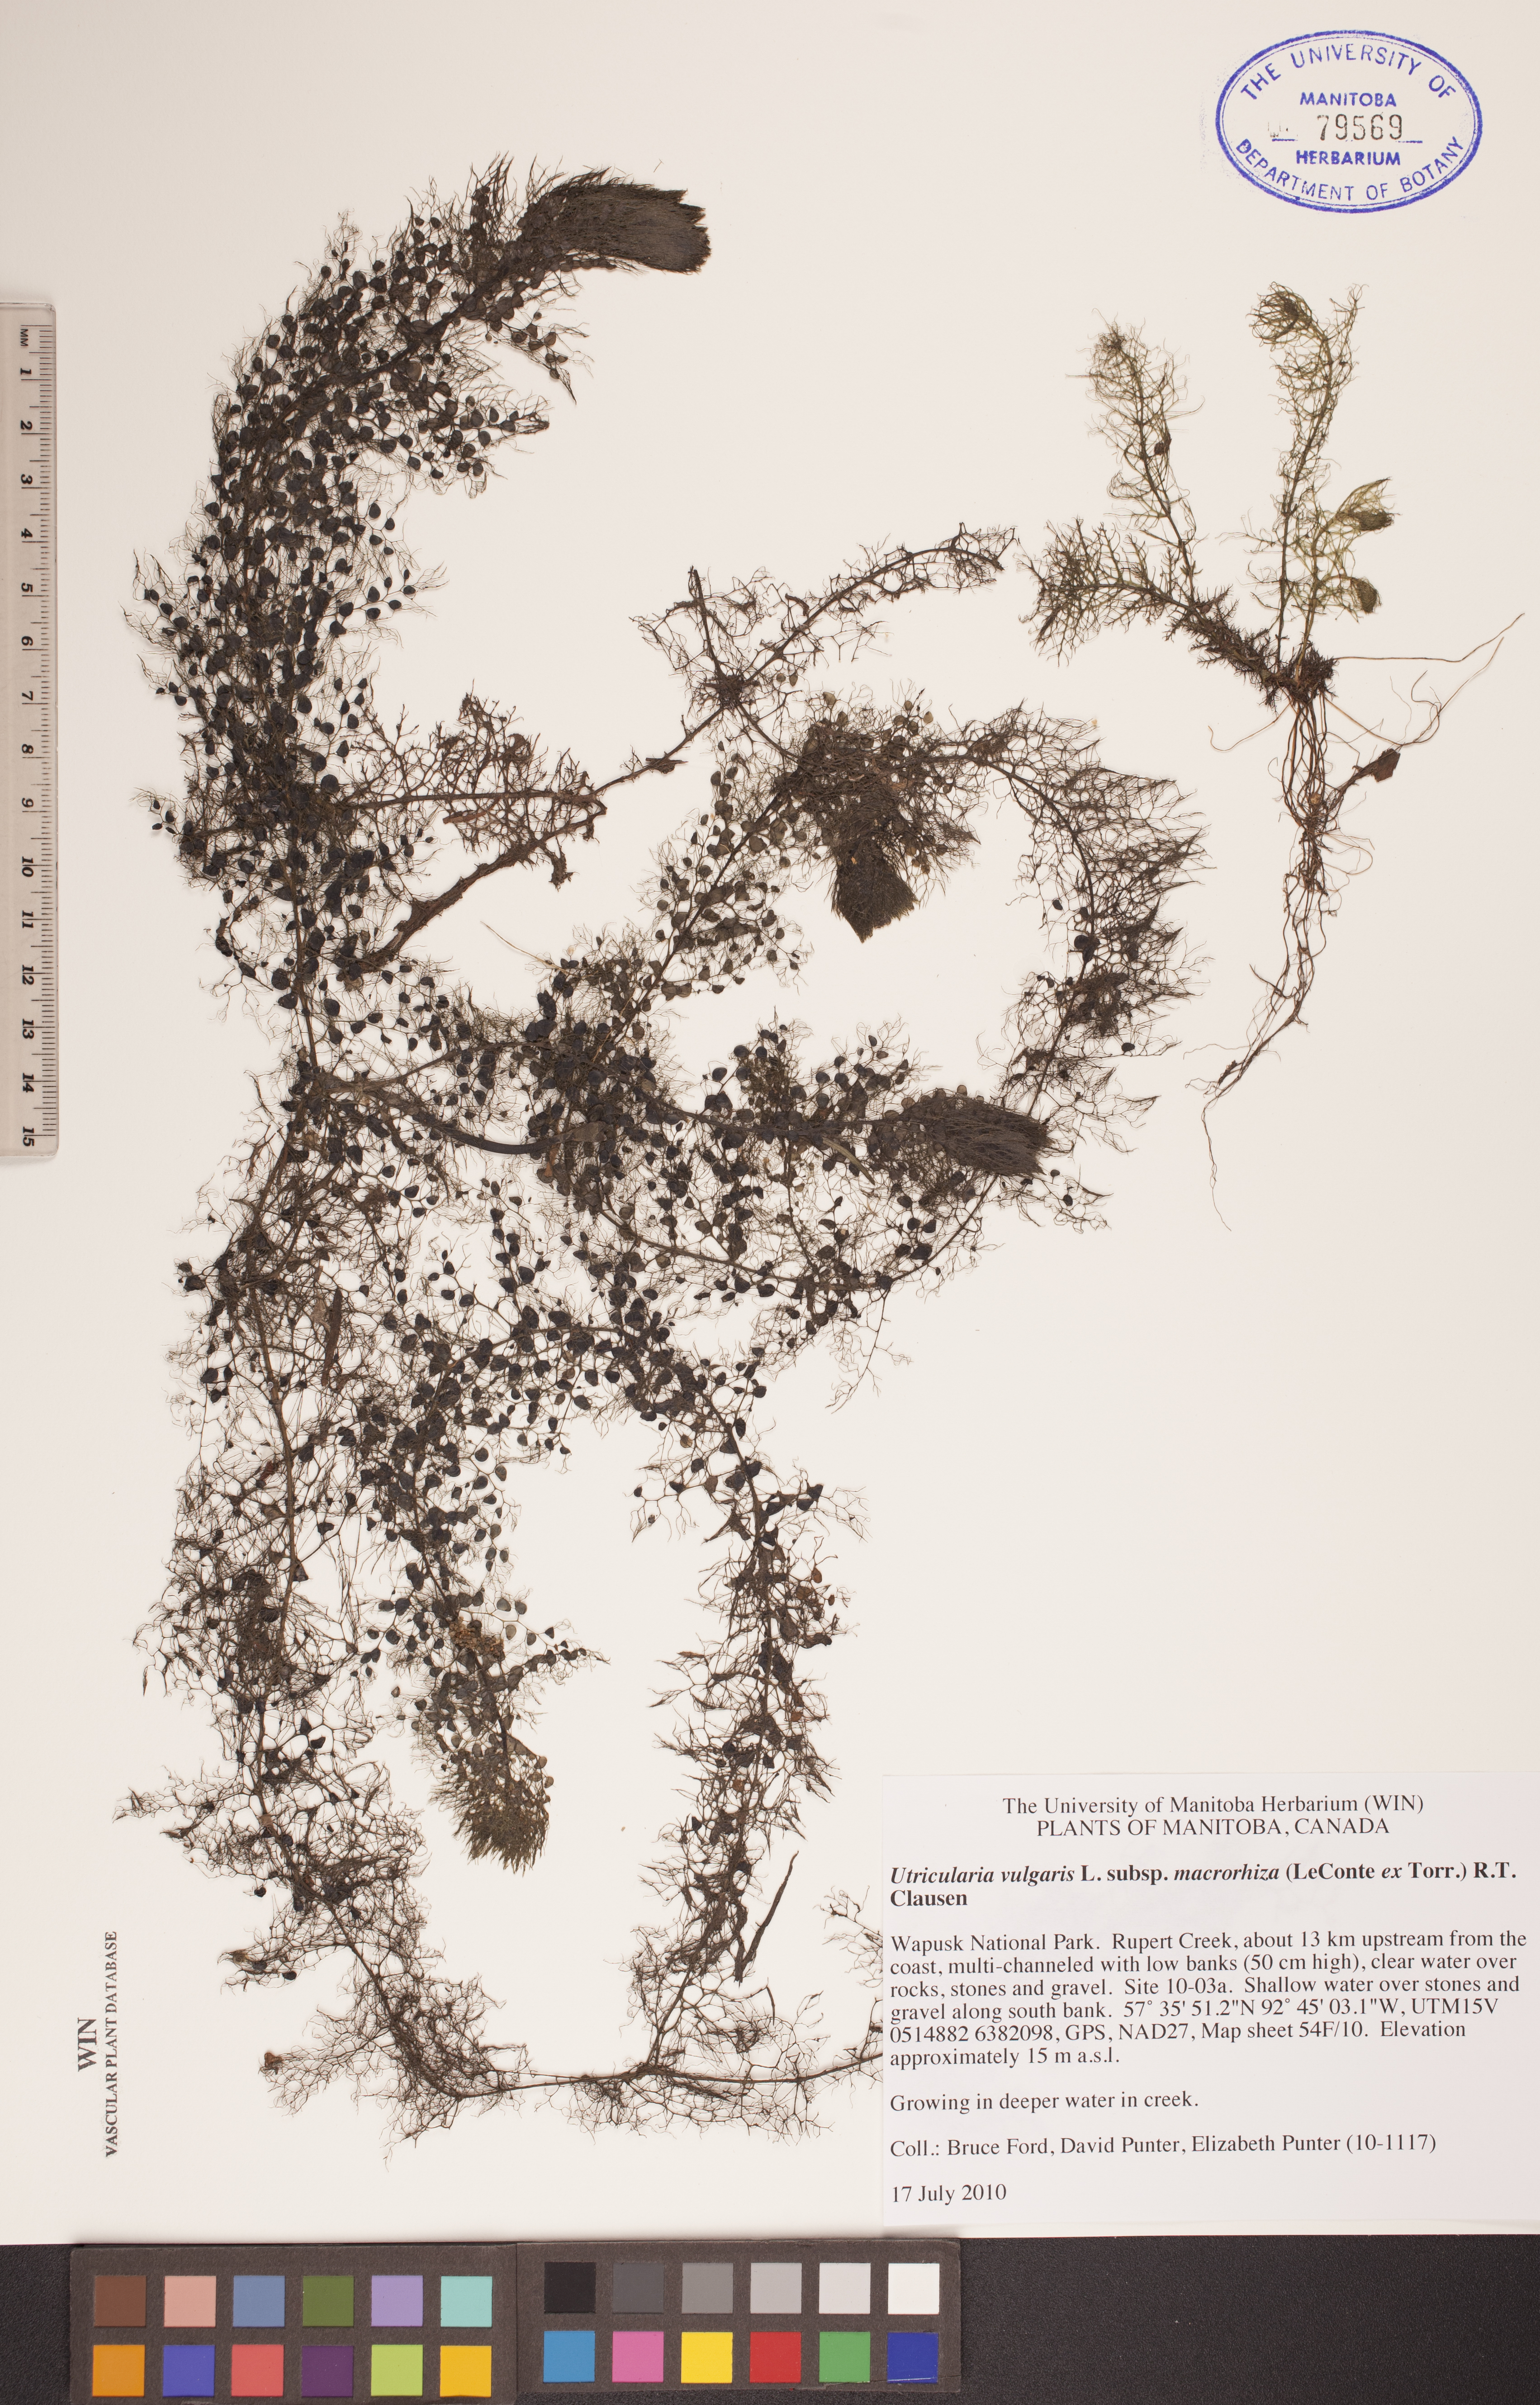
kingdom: Plantae
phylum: Tracheophyta
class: Magnoliopsida
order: Lamiales
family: Lentibulariaceae
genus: Utricularia
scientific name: Utricularia macrorhiza
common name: Common bladderwort
